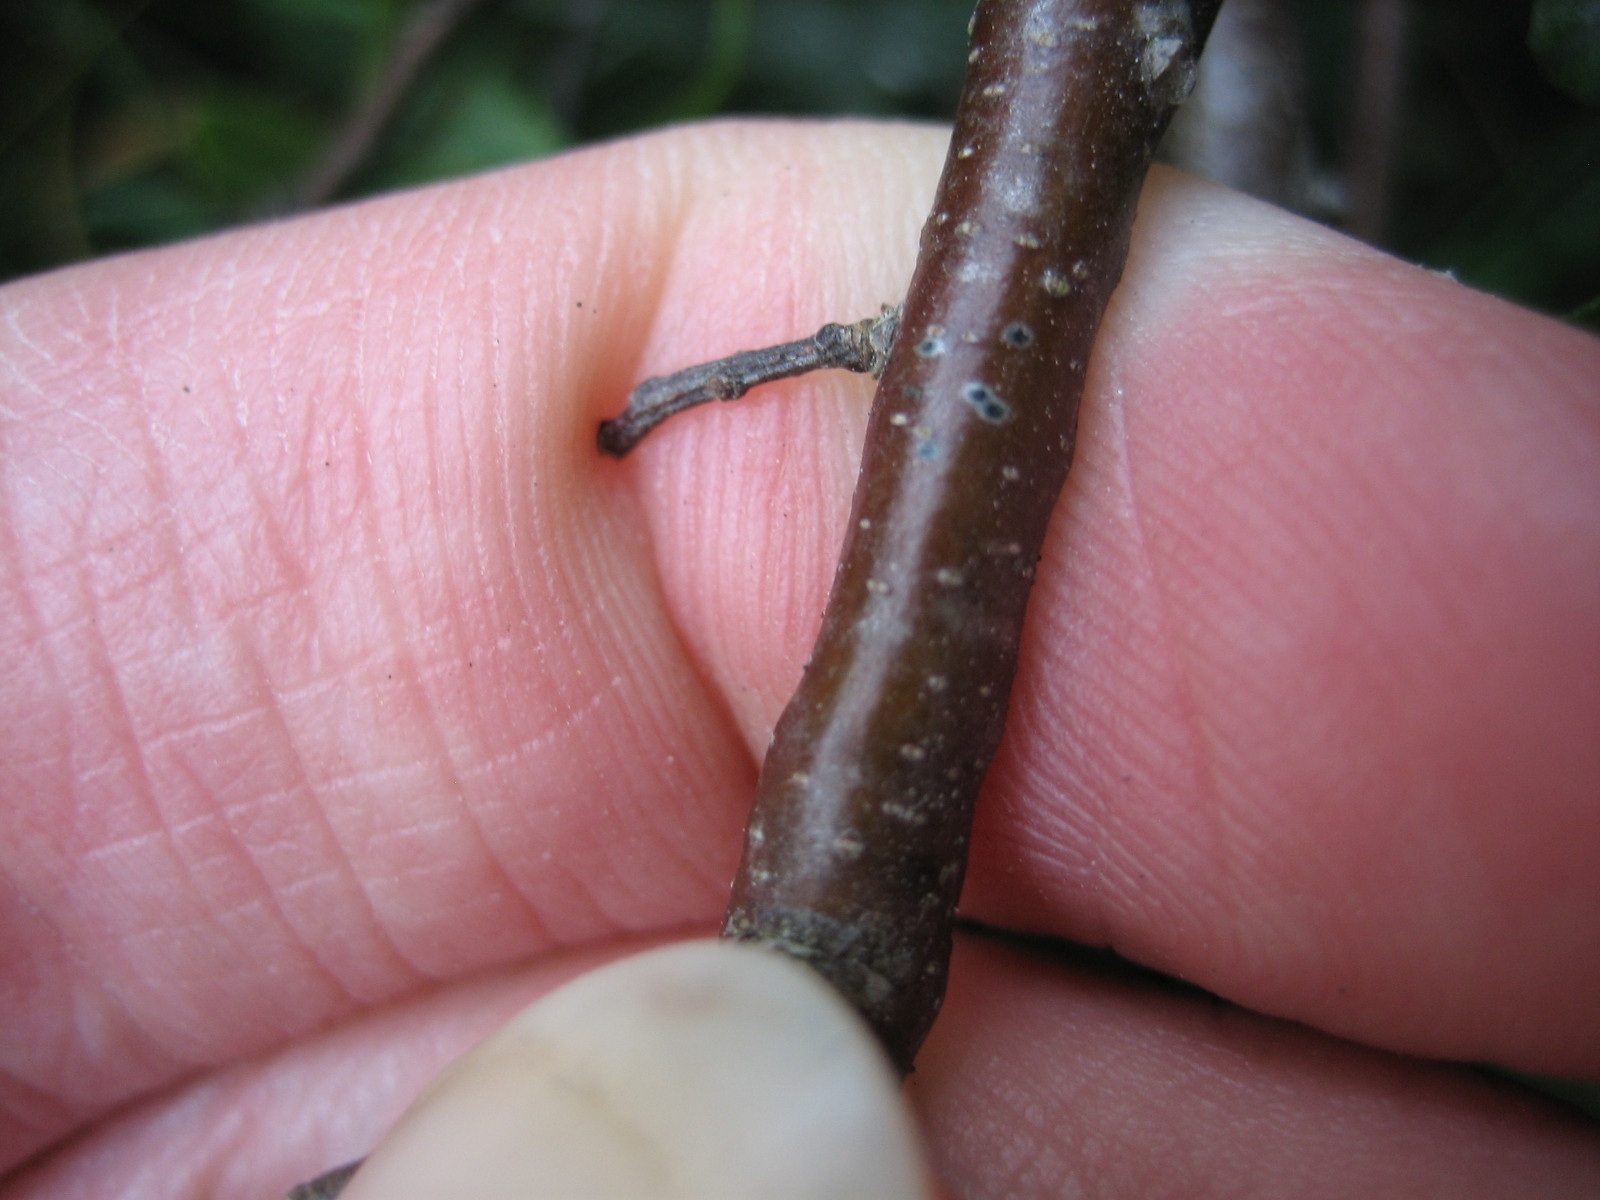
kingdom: Fungi
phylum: Ascomycota
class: Dothideomycetes
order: Dothideales
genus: Mycoglaena
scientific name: Mycoglaena myricae
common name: liden porsprik
